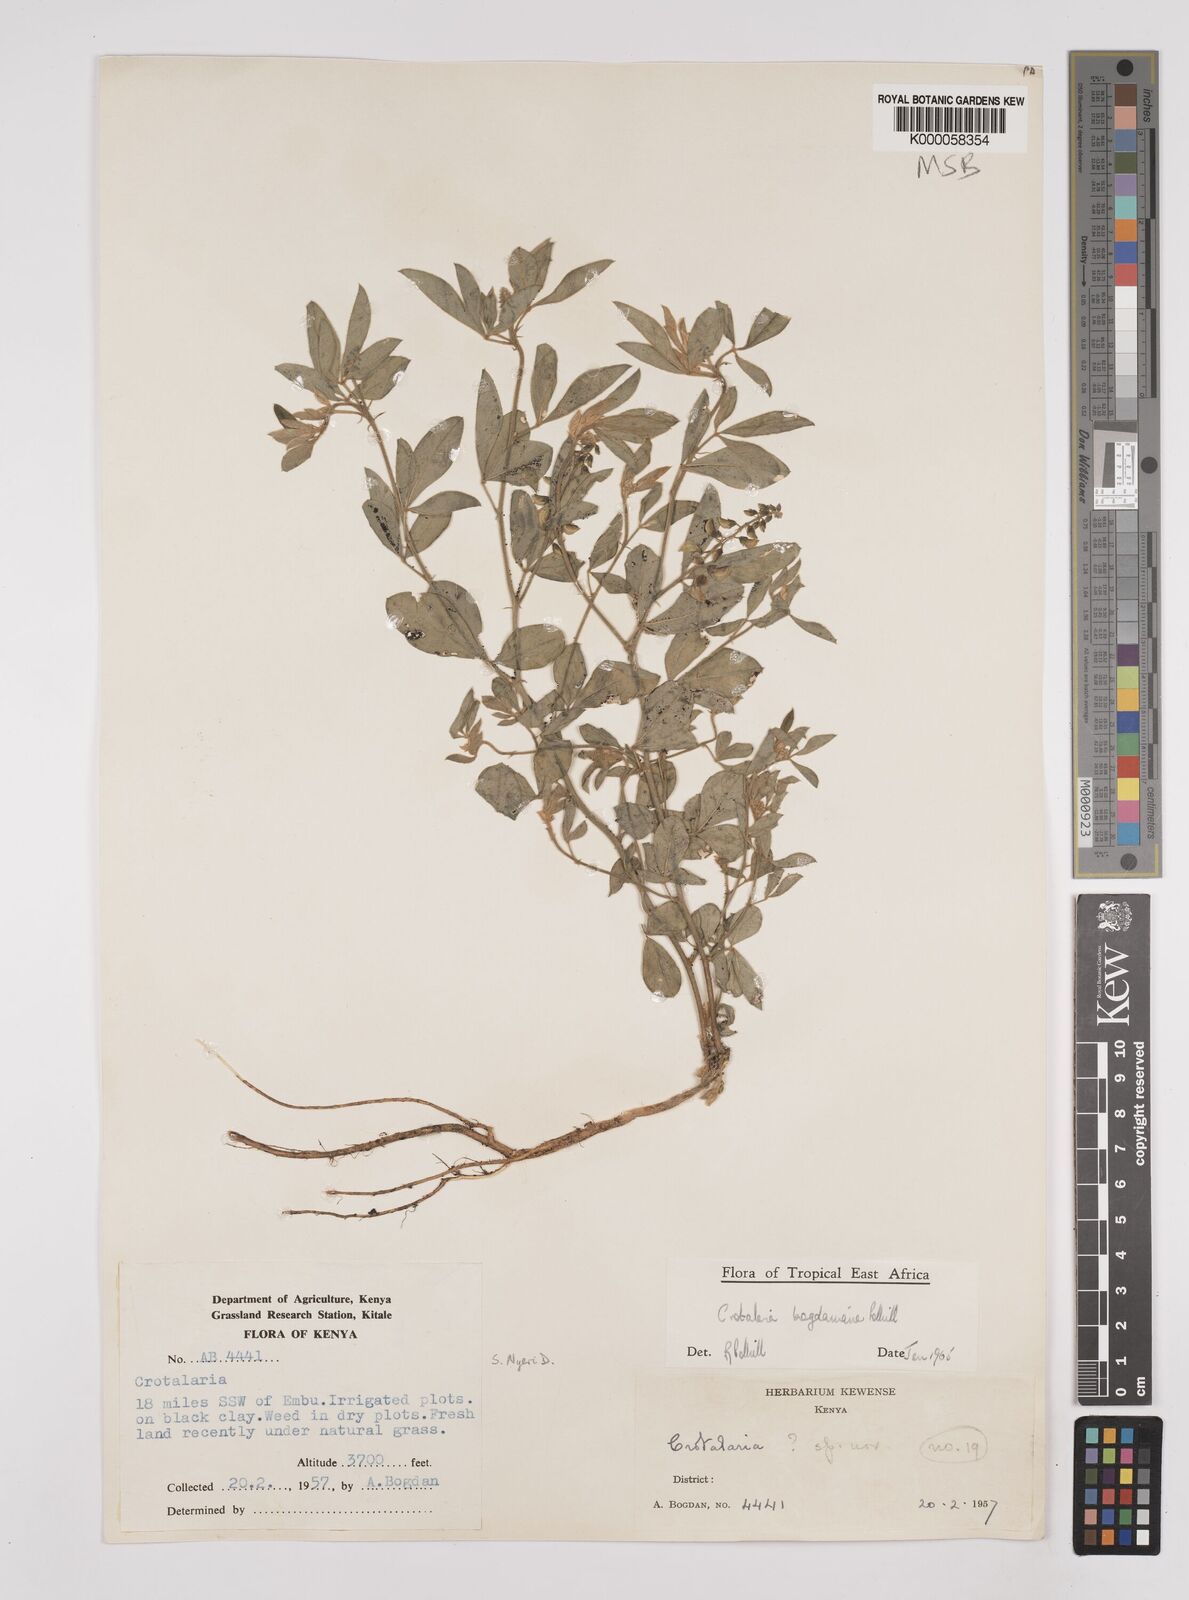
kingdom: Plantae
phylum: Tracheophyta
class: Magnoliopsida
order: Fabales
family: Fabaceae
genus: Crotalaria
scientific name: Crotalaria bogdaniana
